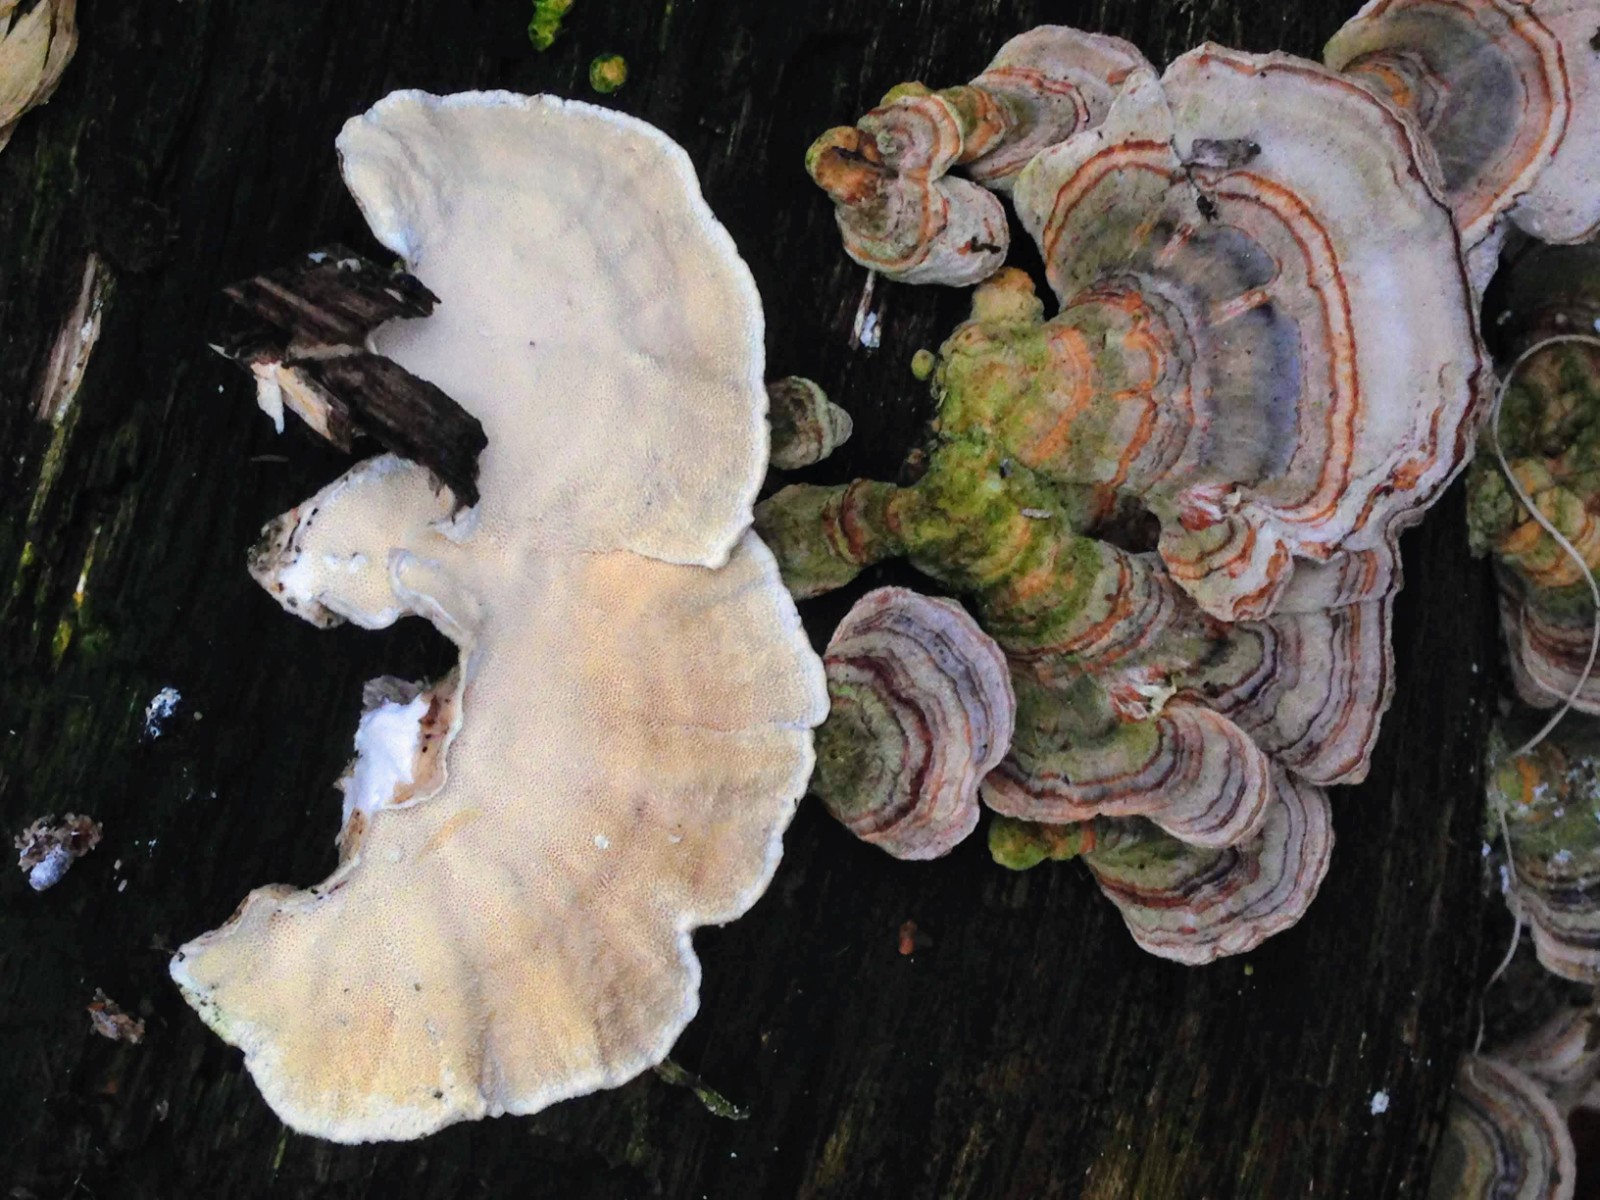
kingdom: Fungi
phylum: Basidiomycota
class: Agaricomycetes
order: Polyporales
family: Polyporaceae
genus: Trametes
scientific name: Trametes versicolor
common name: broget læderporesvamp
